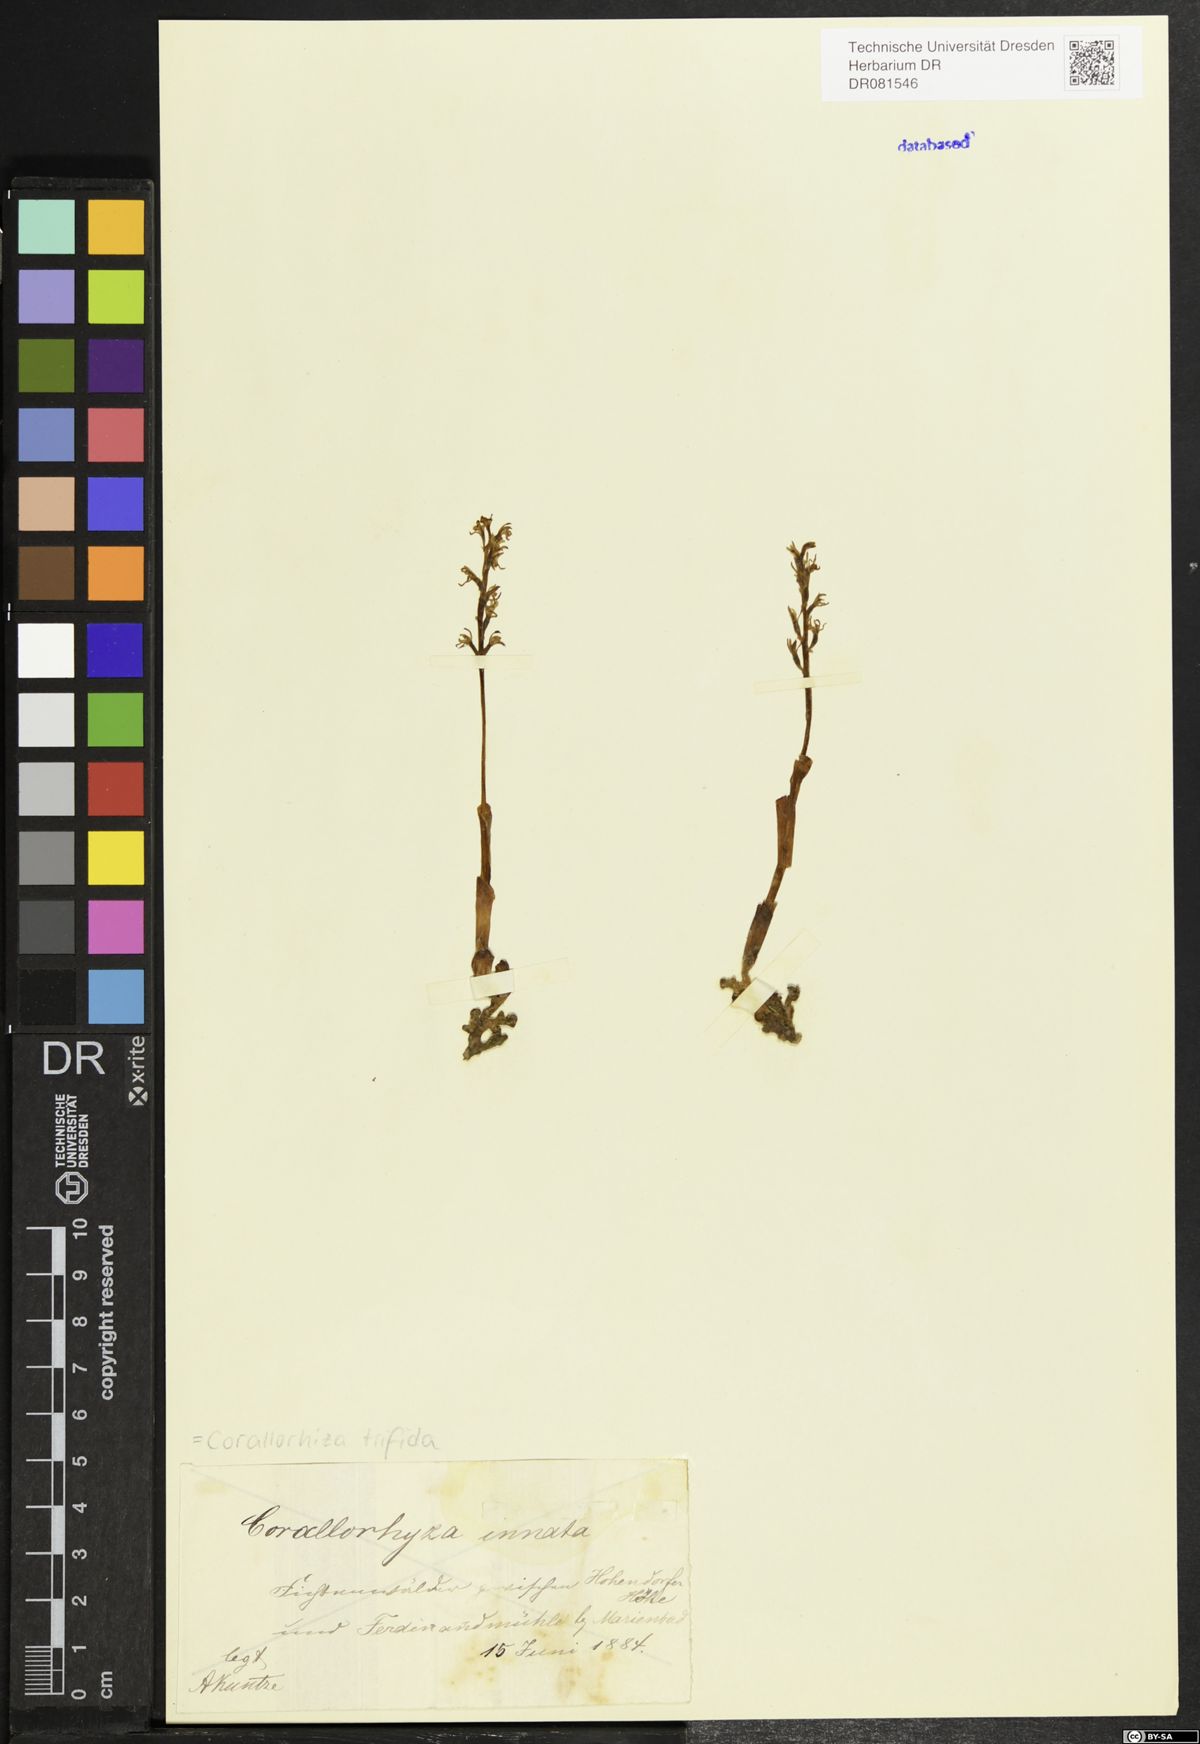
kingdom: Plantae
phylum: Tracheophyta
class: Liliopsida
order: Asparagales
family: Orchidaceae
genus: Corallorhiza
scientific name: Corallorhiza trifida
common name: Yellow coralroot
